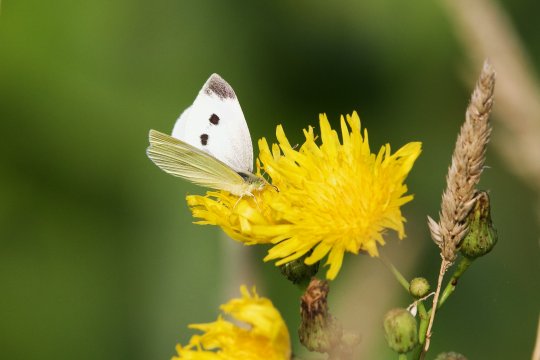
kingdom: Animalia
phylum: Arthropoda
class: Insecta
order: Lepidoptera
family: Pieridae
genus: Pieris
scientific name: Pieris rapae
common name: Cabbage White
